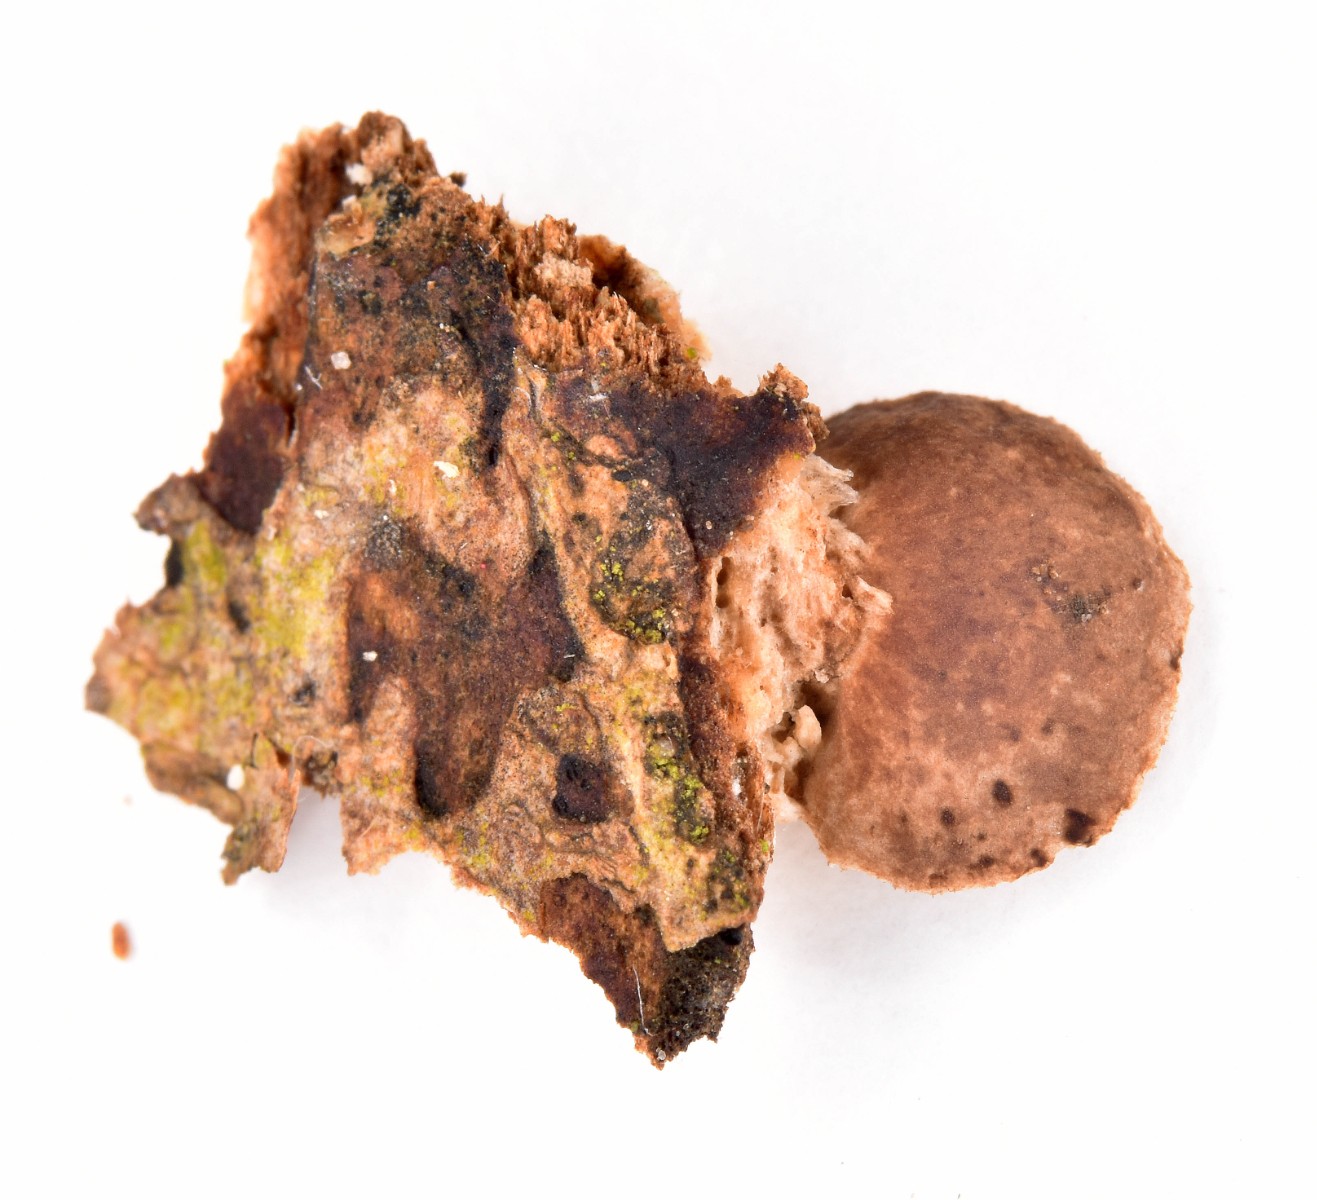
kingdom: Fungi
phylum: Basidiomycota
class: Agaricomycetes
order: Agaricales
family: Strophariaceae
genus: Deconica
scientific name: Deconica horizontalis
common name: ved-stråhat
